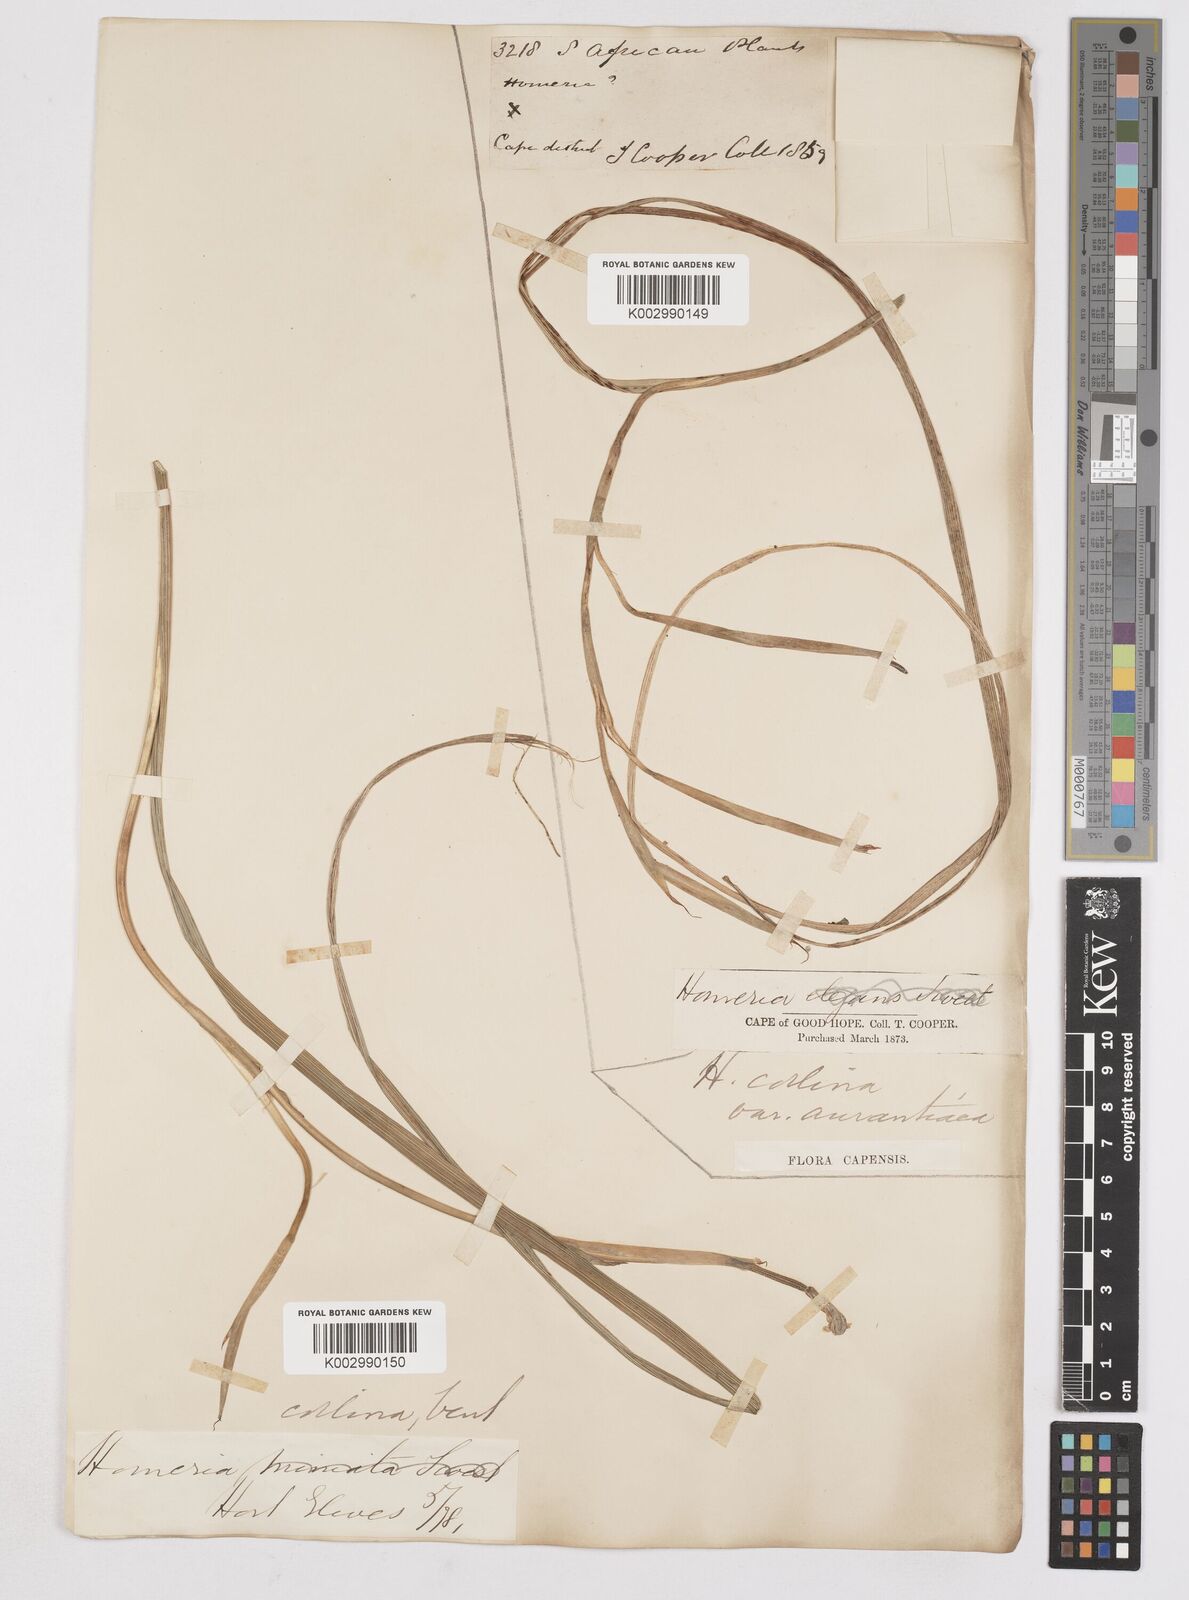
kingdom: Plantae
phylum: Tracheophyta
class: Liliopsida
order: Asparagales
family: Iridaceae
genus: Moraea
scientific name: Moraea collina
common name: Cape-tulip
